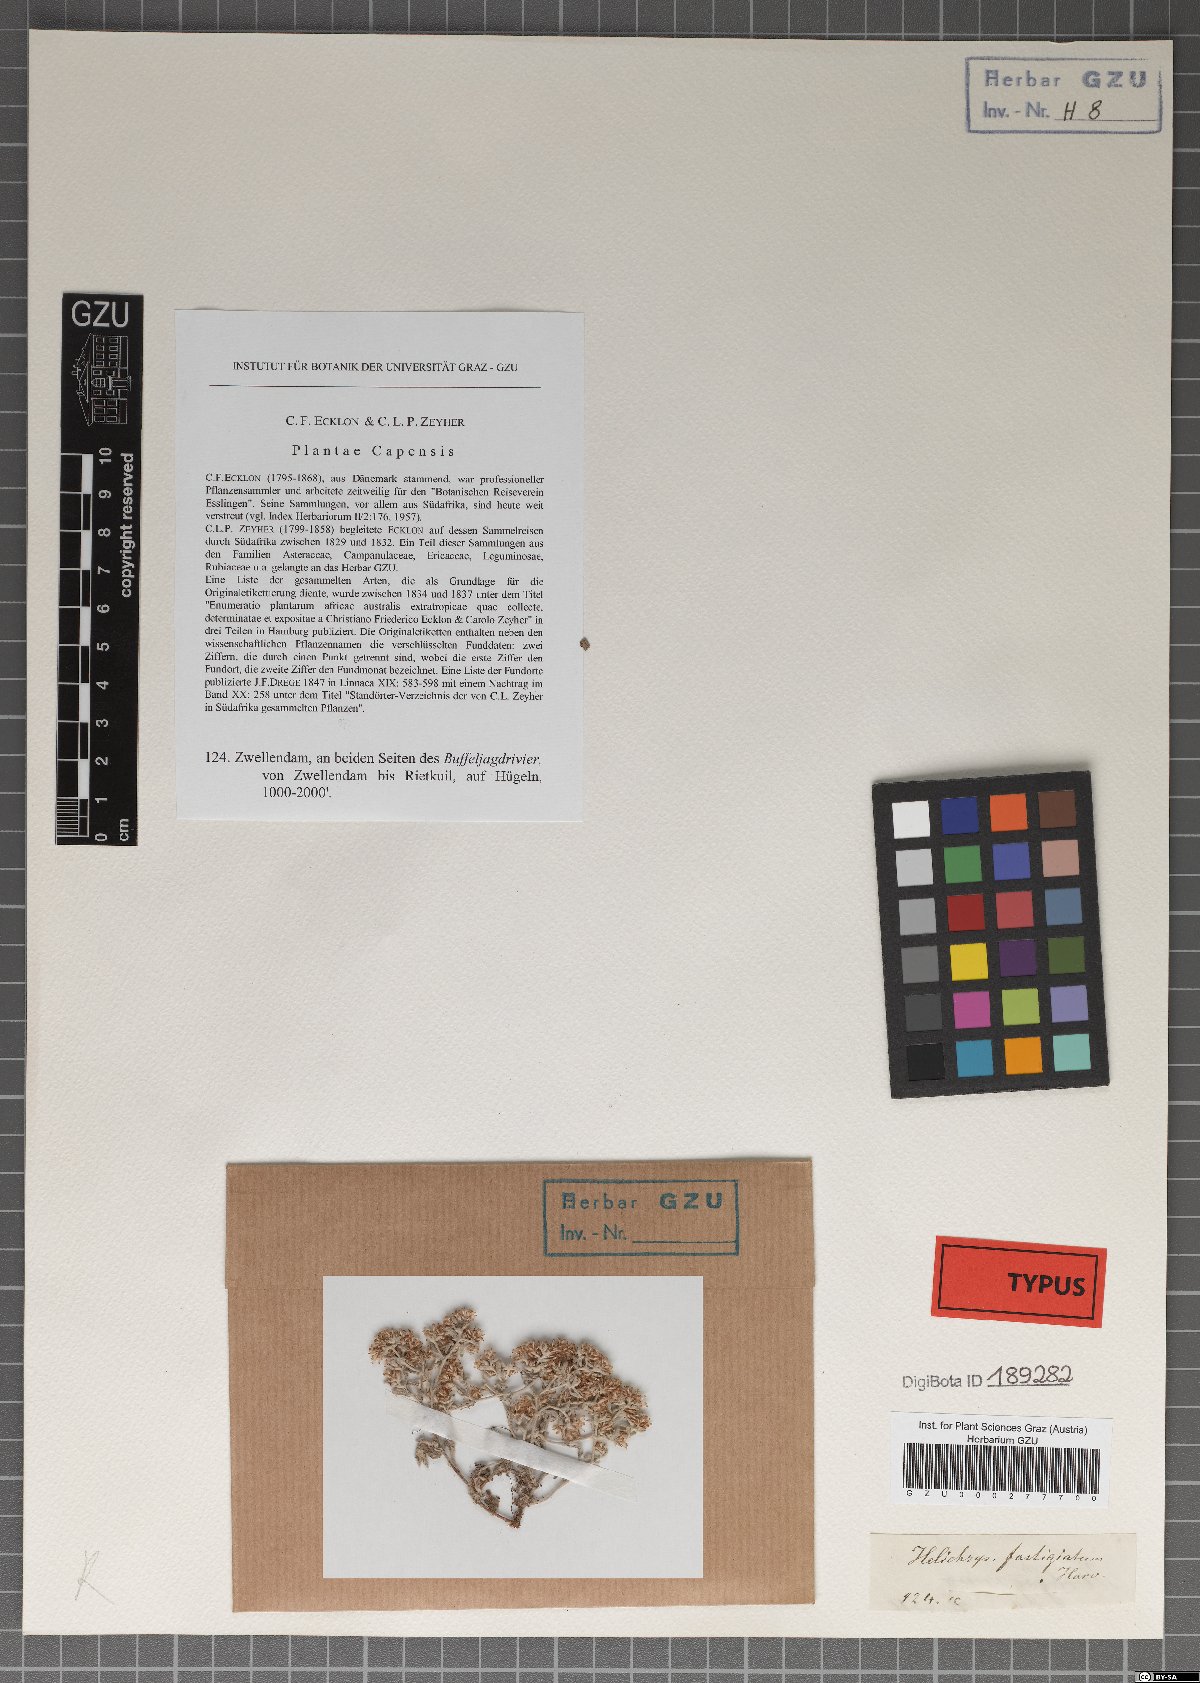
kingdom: Plantae
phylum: Tracheophyta
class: Magnoliopsida
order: Asterales
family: Asteraceae
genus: Helichrysum
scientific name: Helichrysum cylindriflorum
